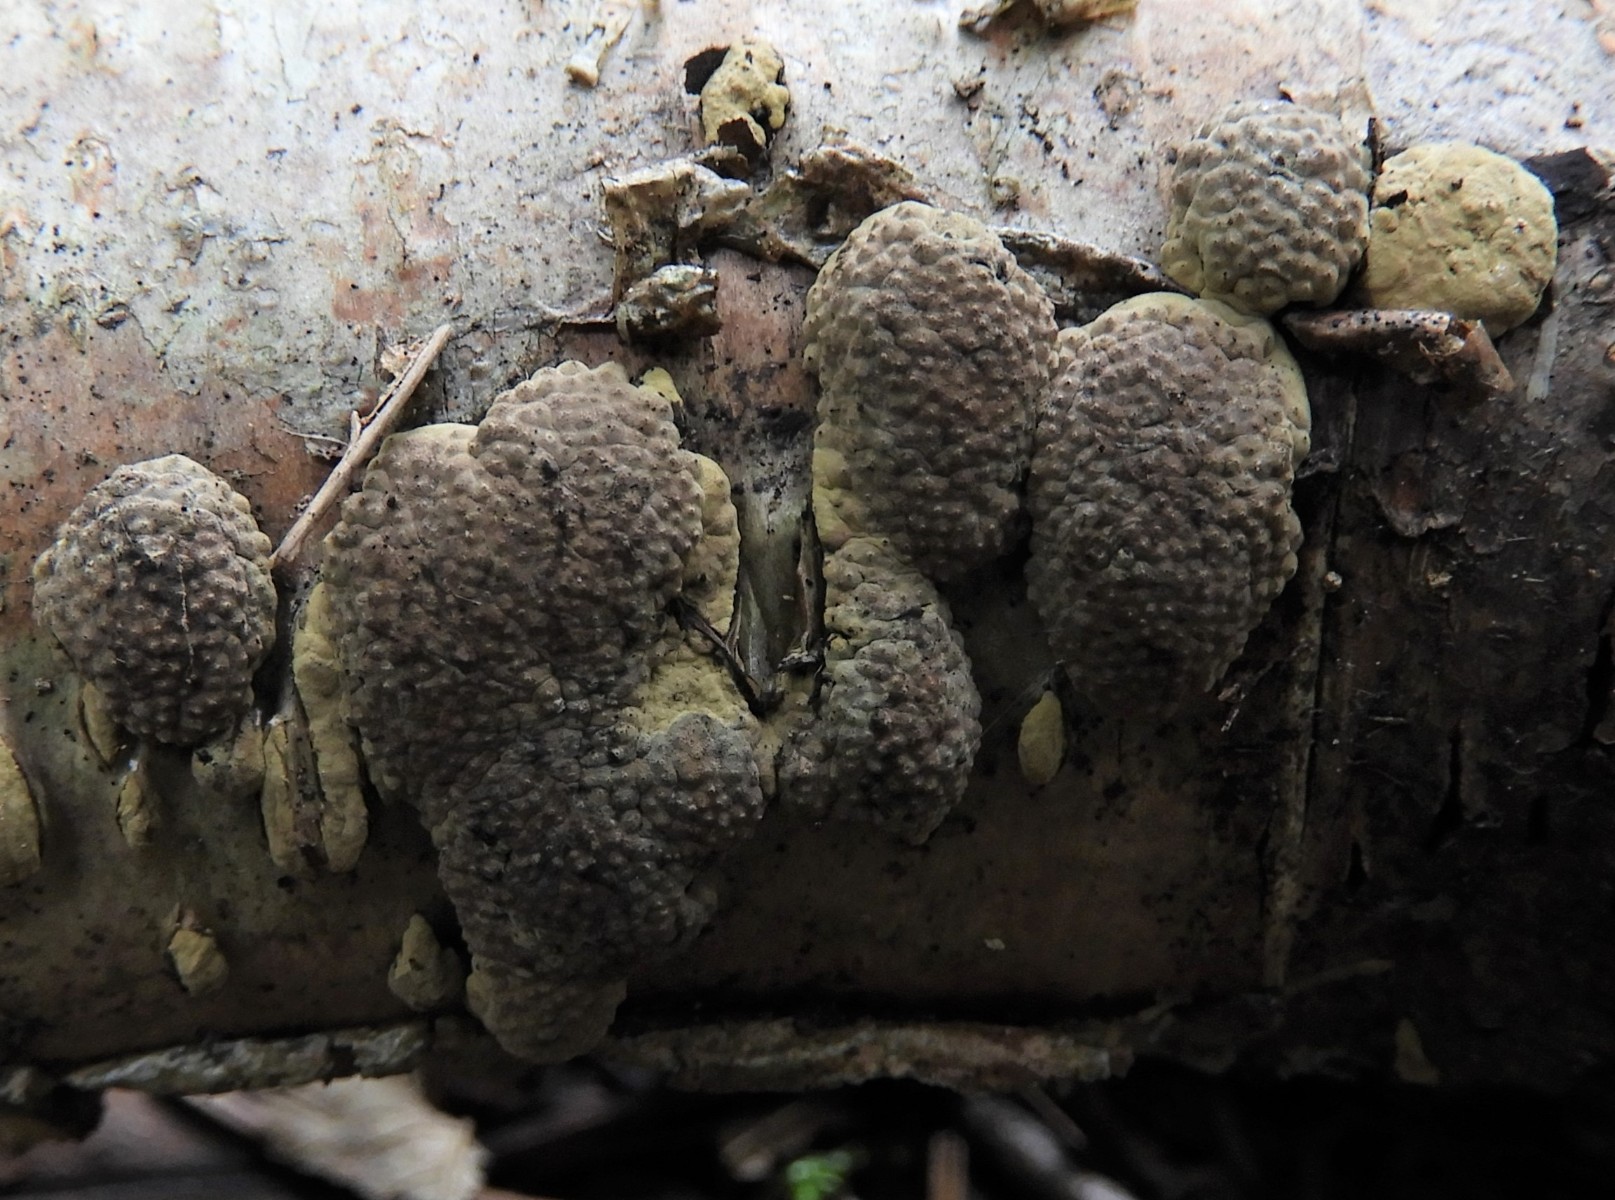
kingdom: Fungi
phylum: Ascomycota
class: Sordariomycetes
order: Xylariales
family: Hypoxylaceae
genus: Jackrogersella
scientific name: Jackrogersella multiformis
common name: foranderlig kulbær
